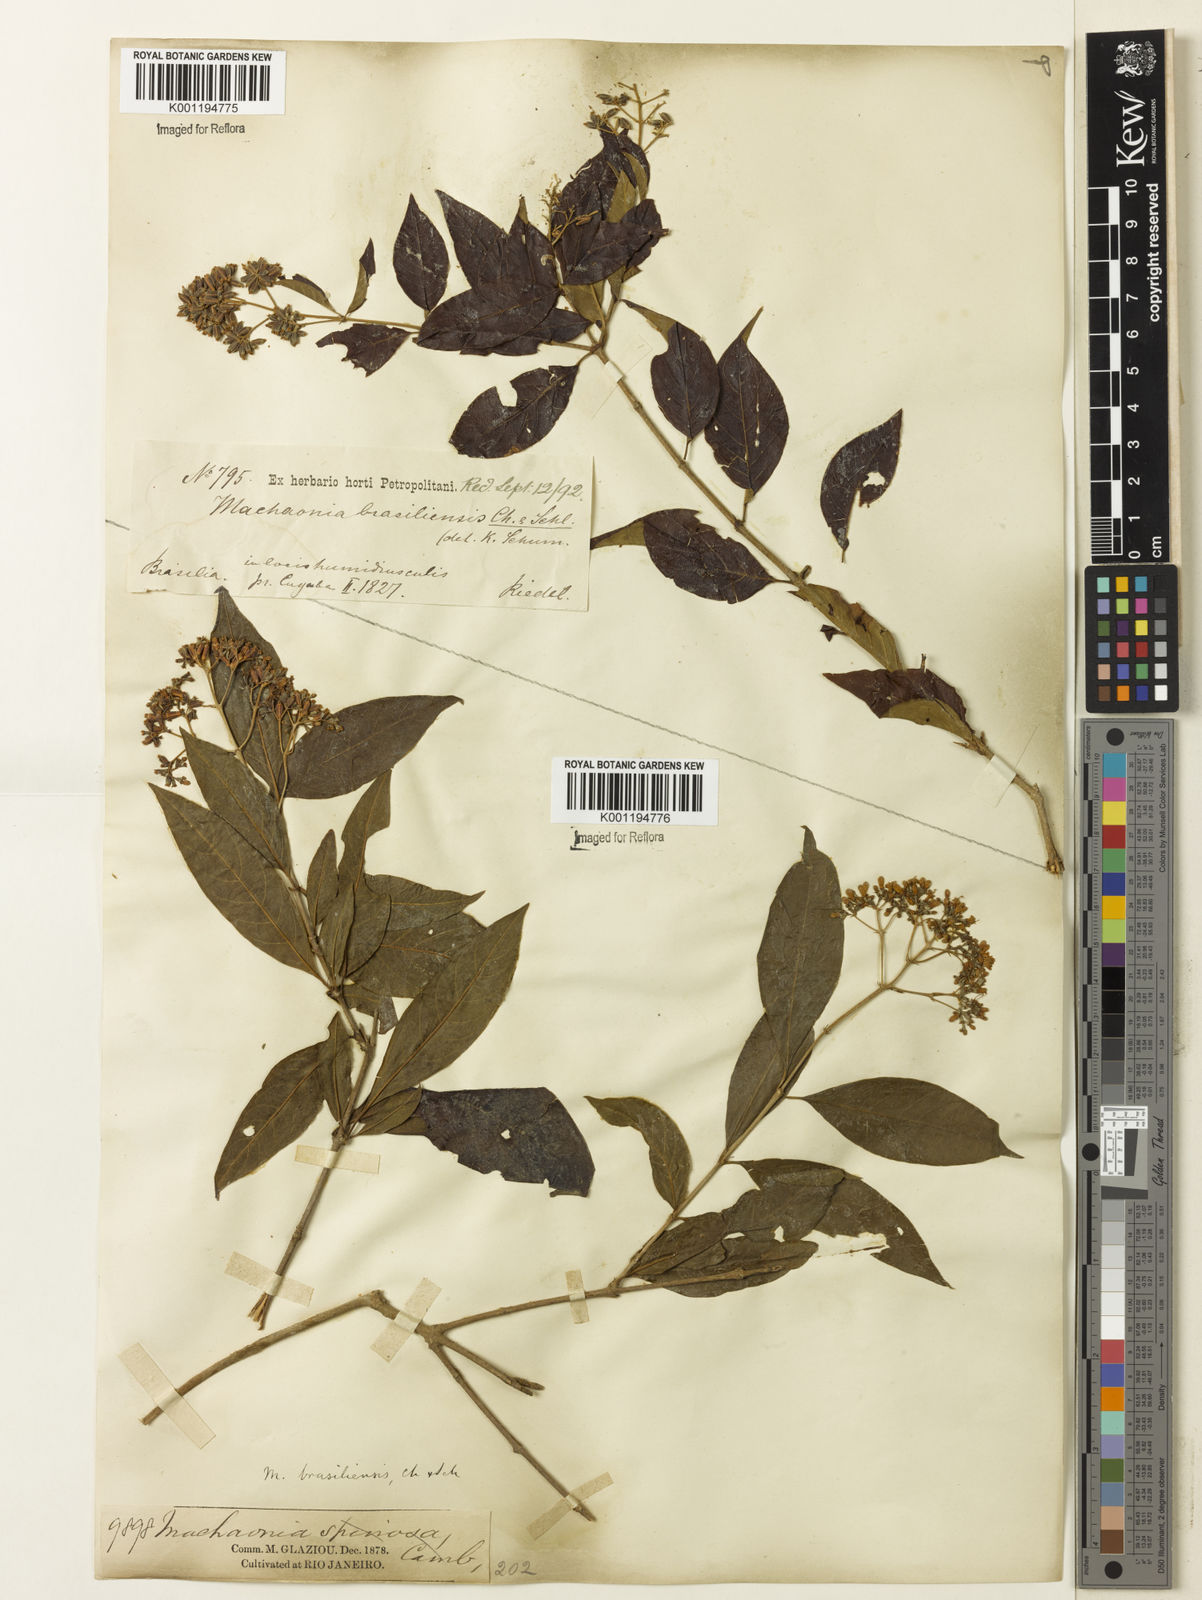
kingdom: Plantae
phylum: Tracheophyta
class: Magnoliopsida
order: Gentianales
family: Rubiaceae
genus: Machaonia
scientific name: Machaonia brasiliensis
